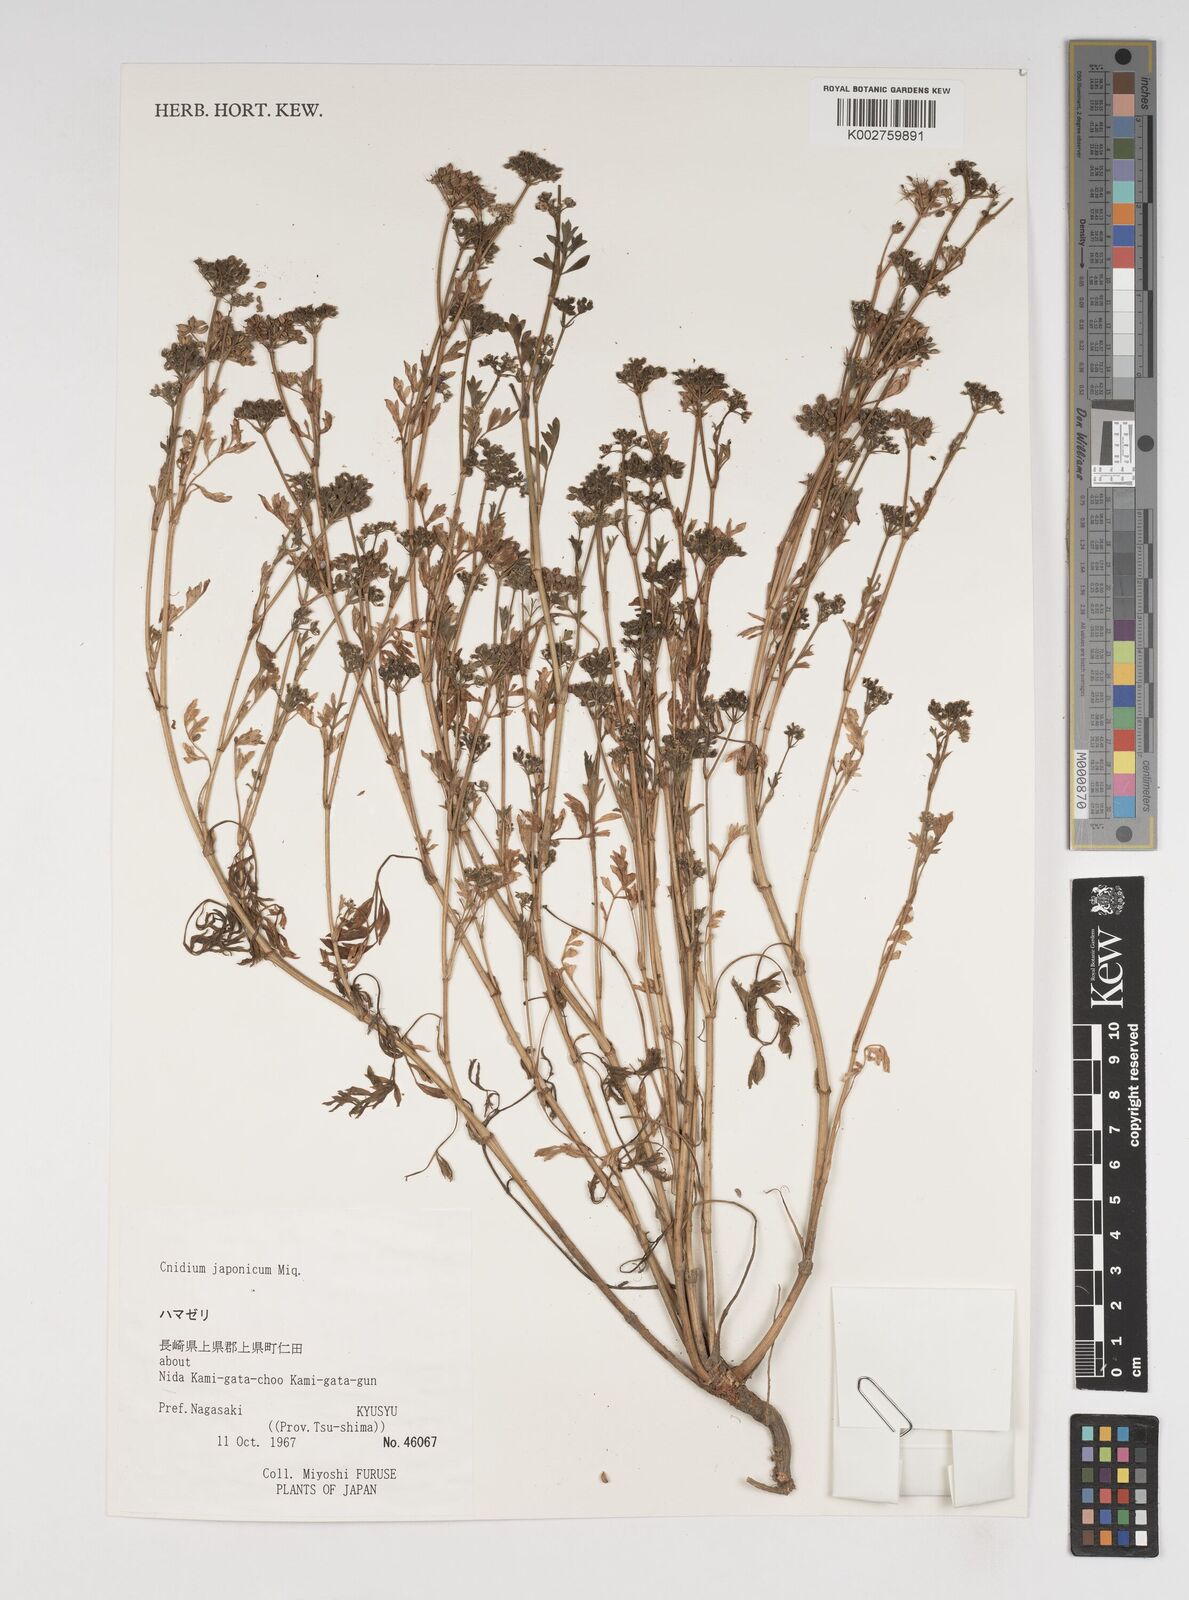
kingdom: Plantae
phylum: Tracheophyta
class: Magnoliopsida
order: Apiales
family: Apiaceae
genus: Cnidium
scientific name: Cnidium japonicum
